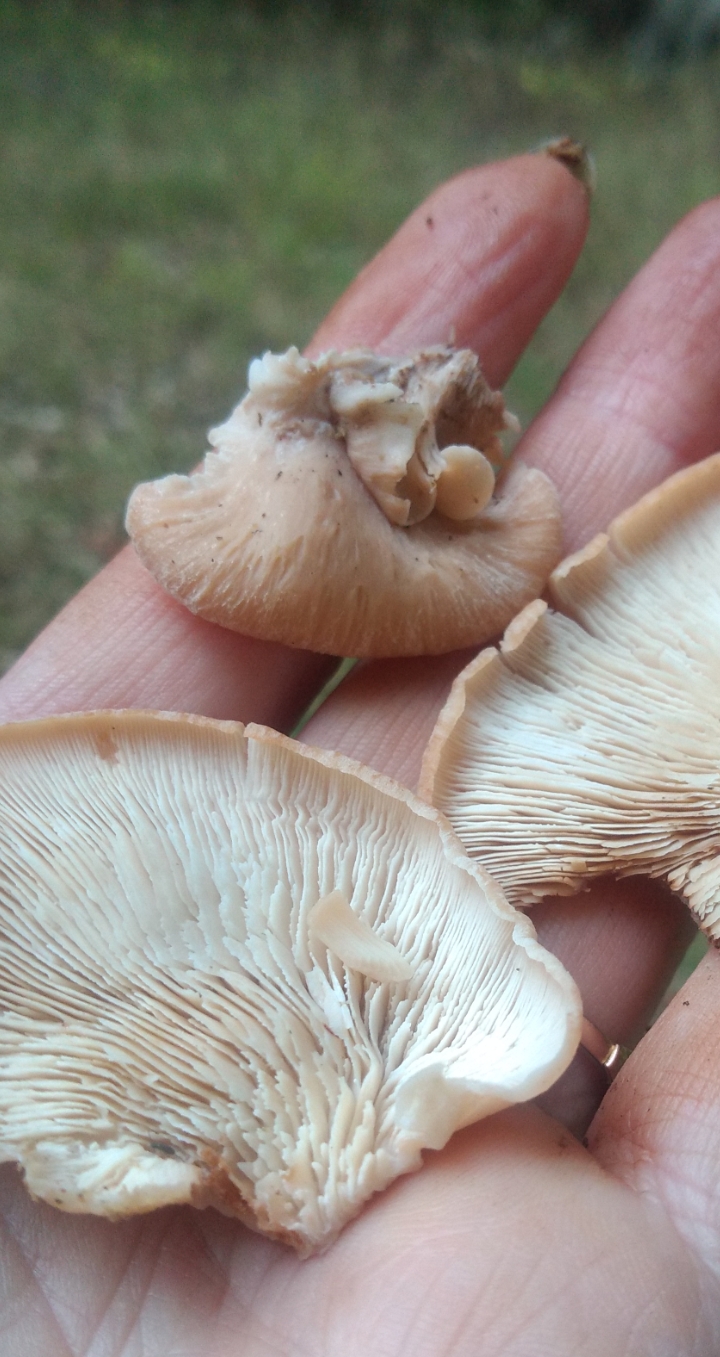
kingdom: Fungi
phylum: Basidiomycota
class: Agaricomycetes
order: Russulales
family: Auriscalpiaceae
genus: Lentinellus
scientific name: Lentinellus ursinus
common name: børstehåret savbladhat
